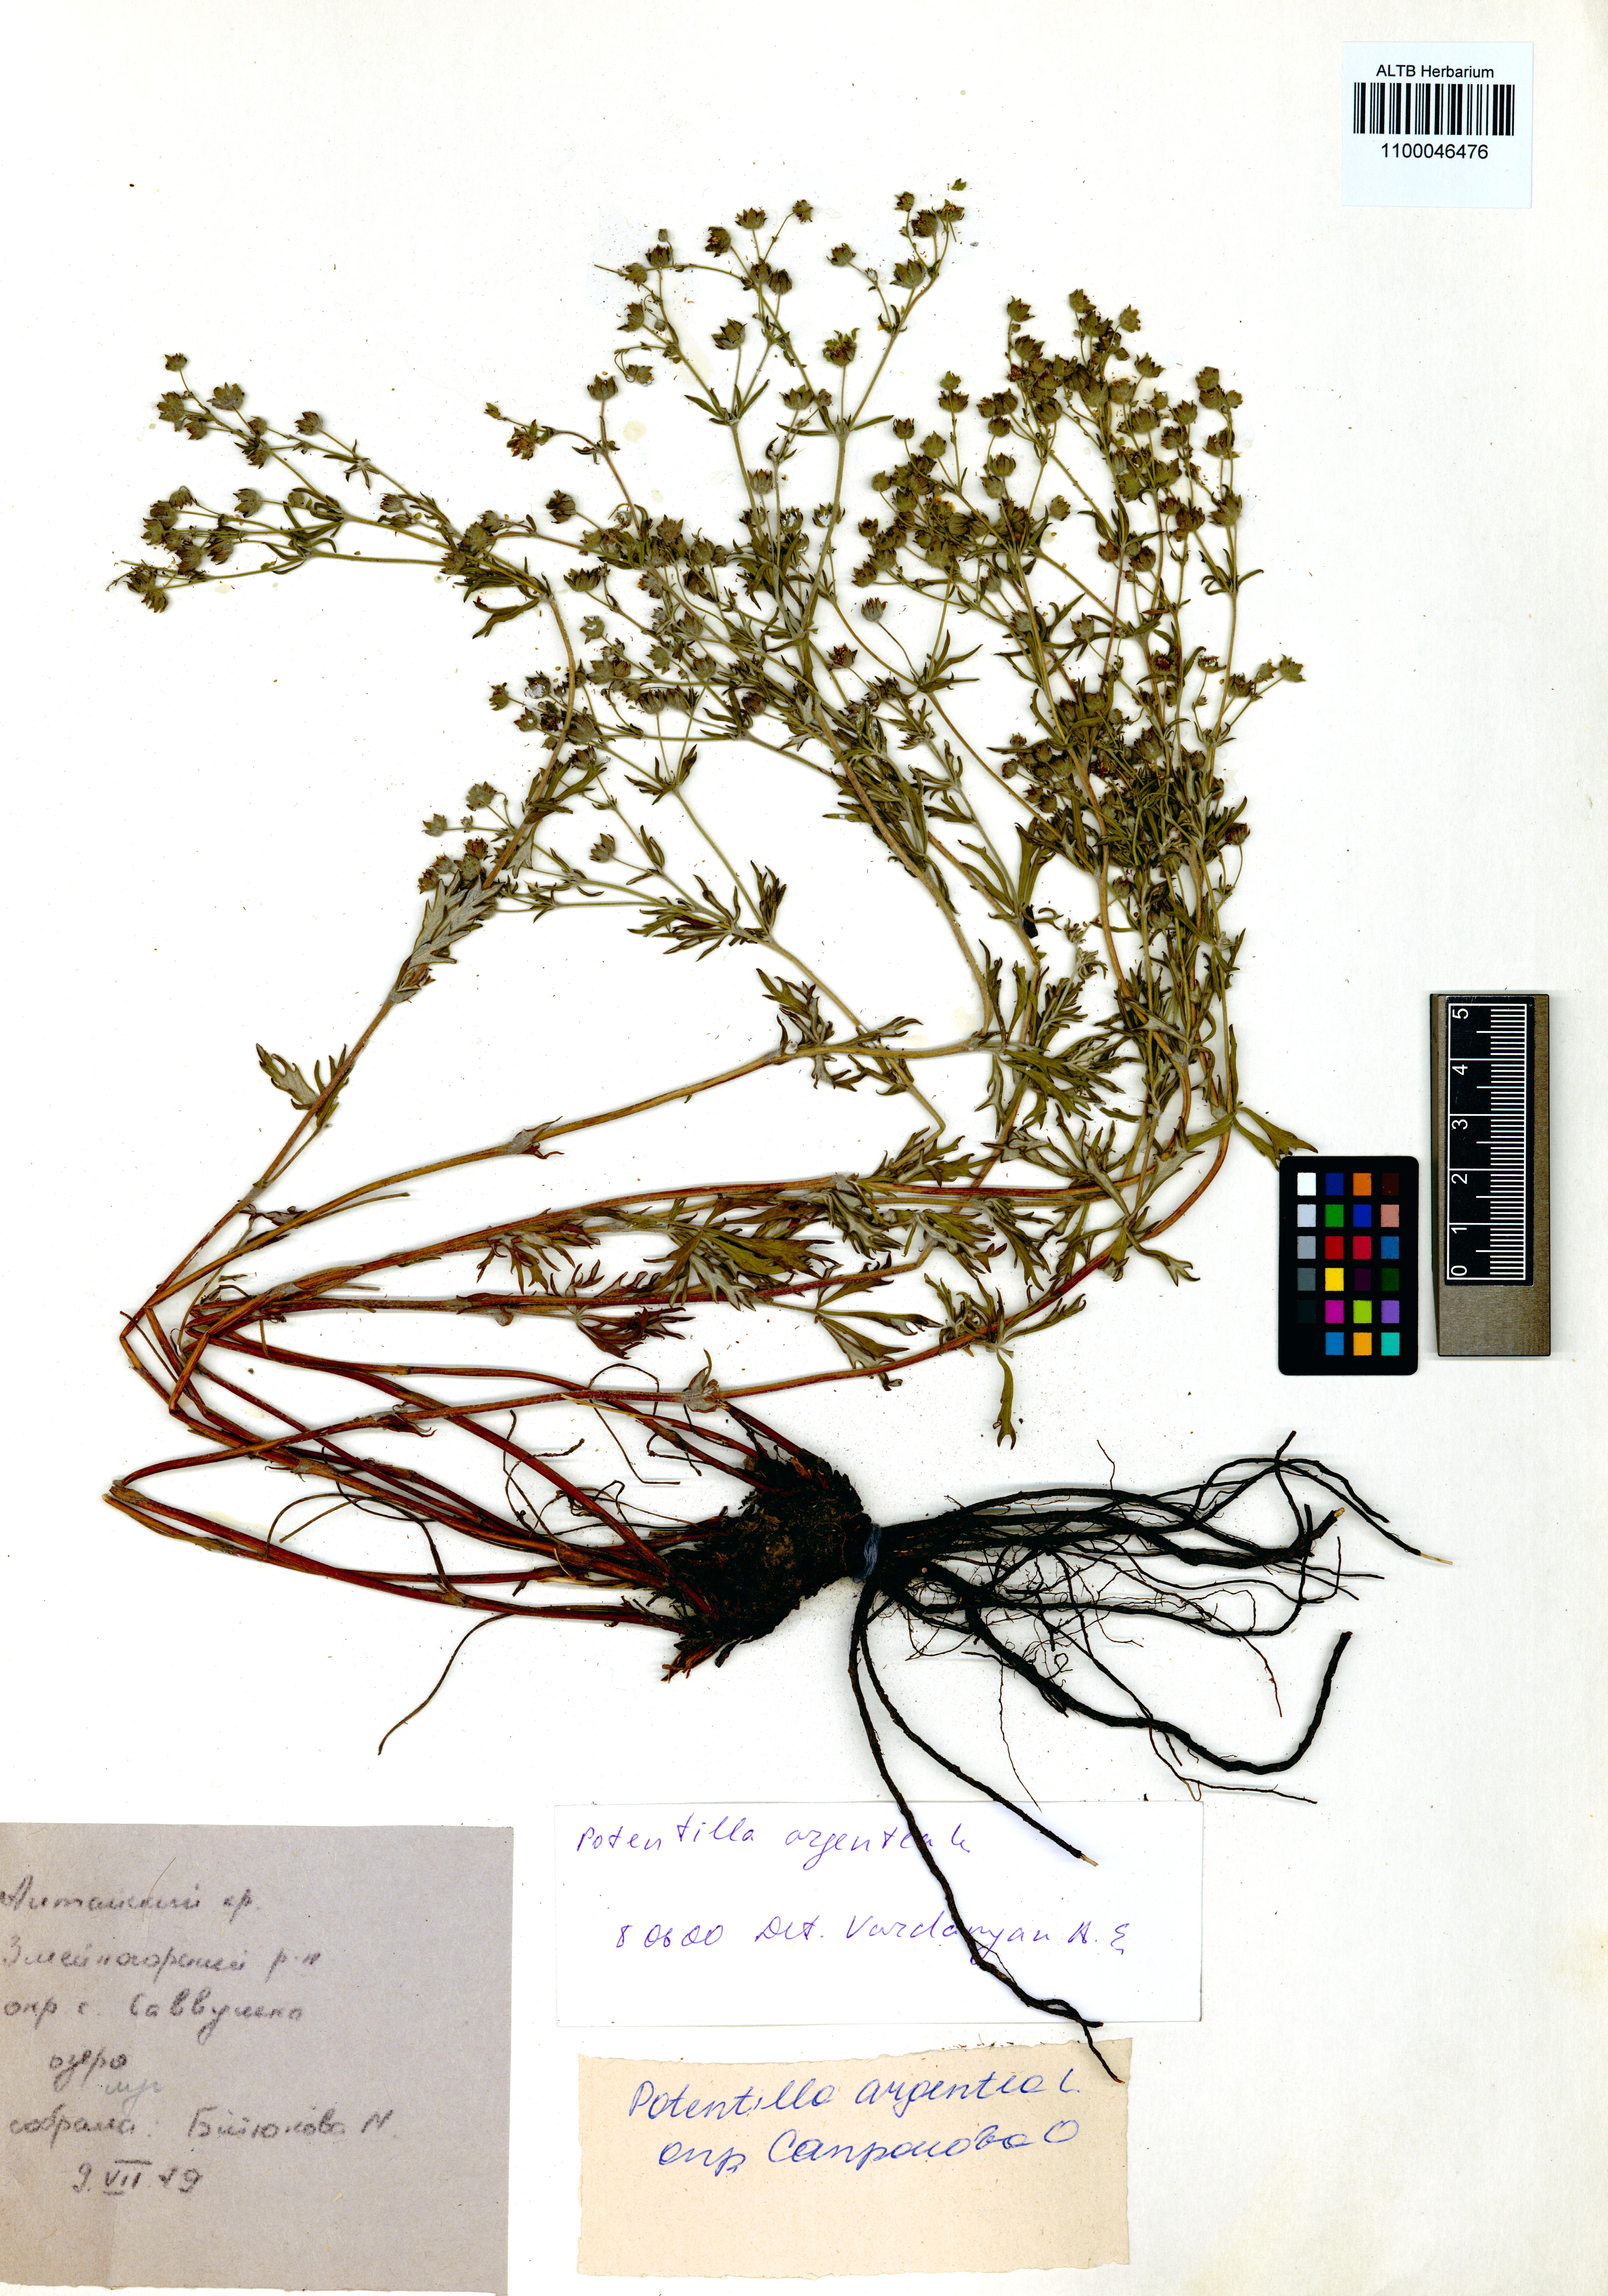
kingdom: Plantae
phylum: Tracheophyta
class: Magnoliopsida
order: Rosales
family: Rosaceae
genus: Potentilla
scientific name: Potentilla argentea
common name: Hoary cinquefoil
